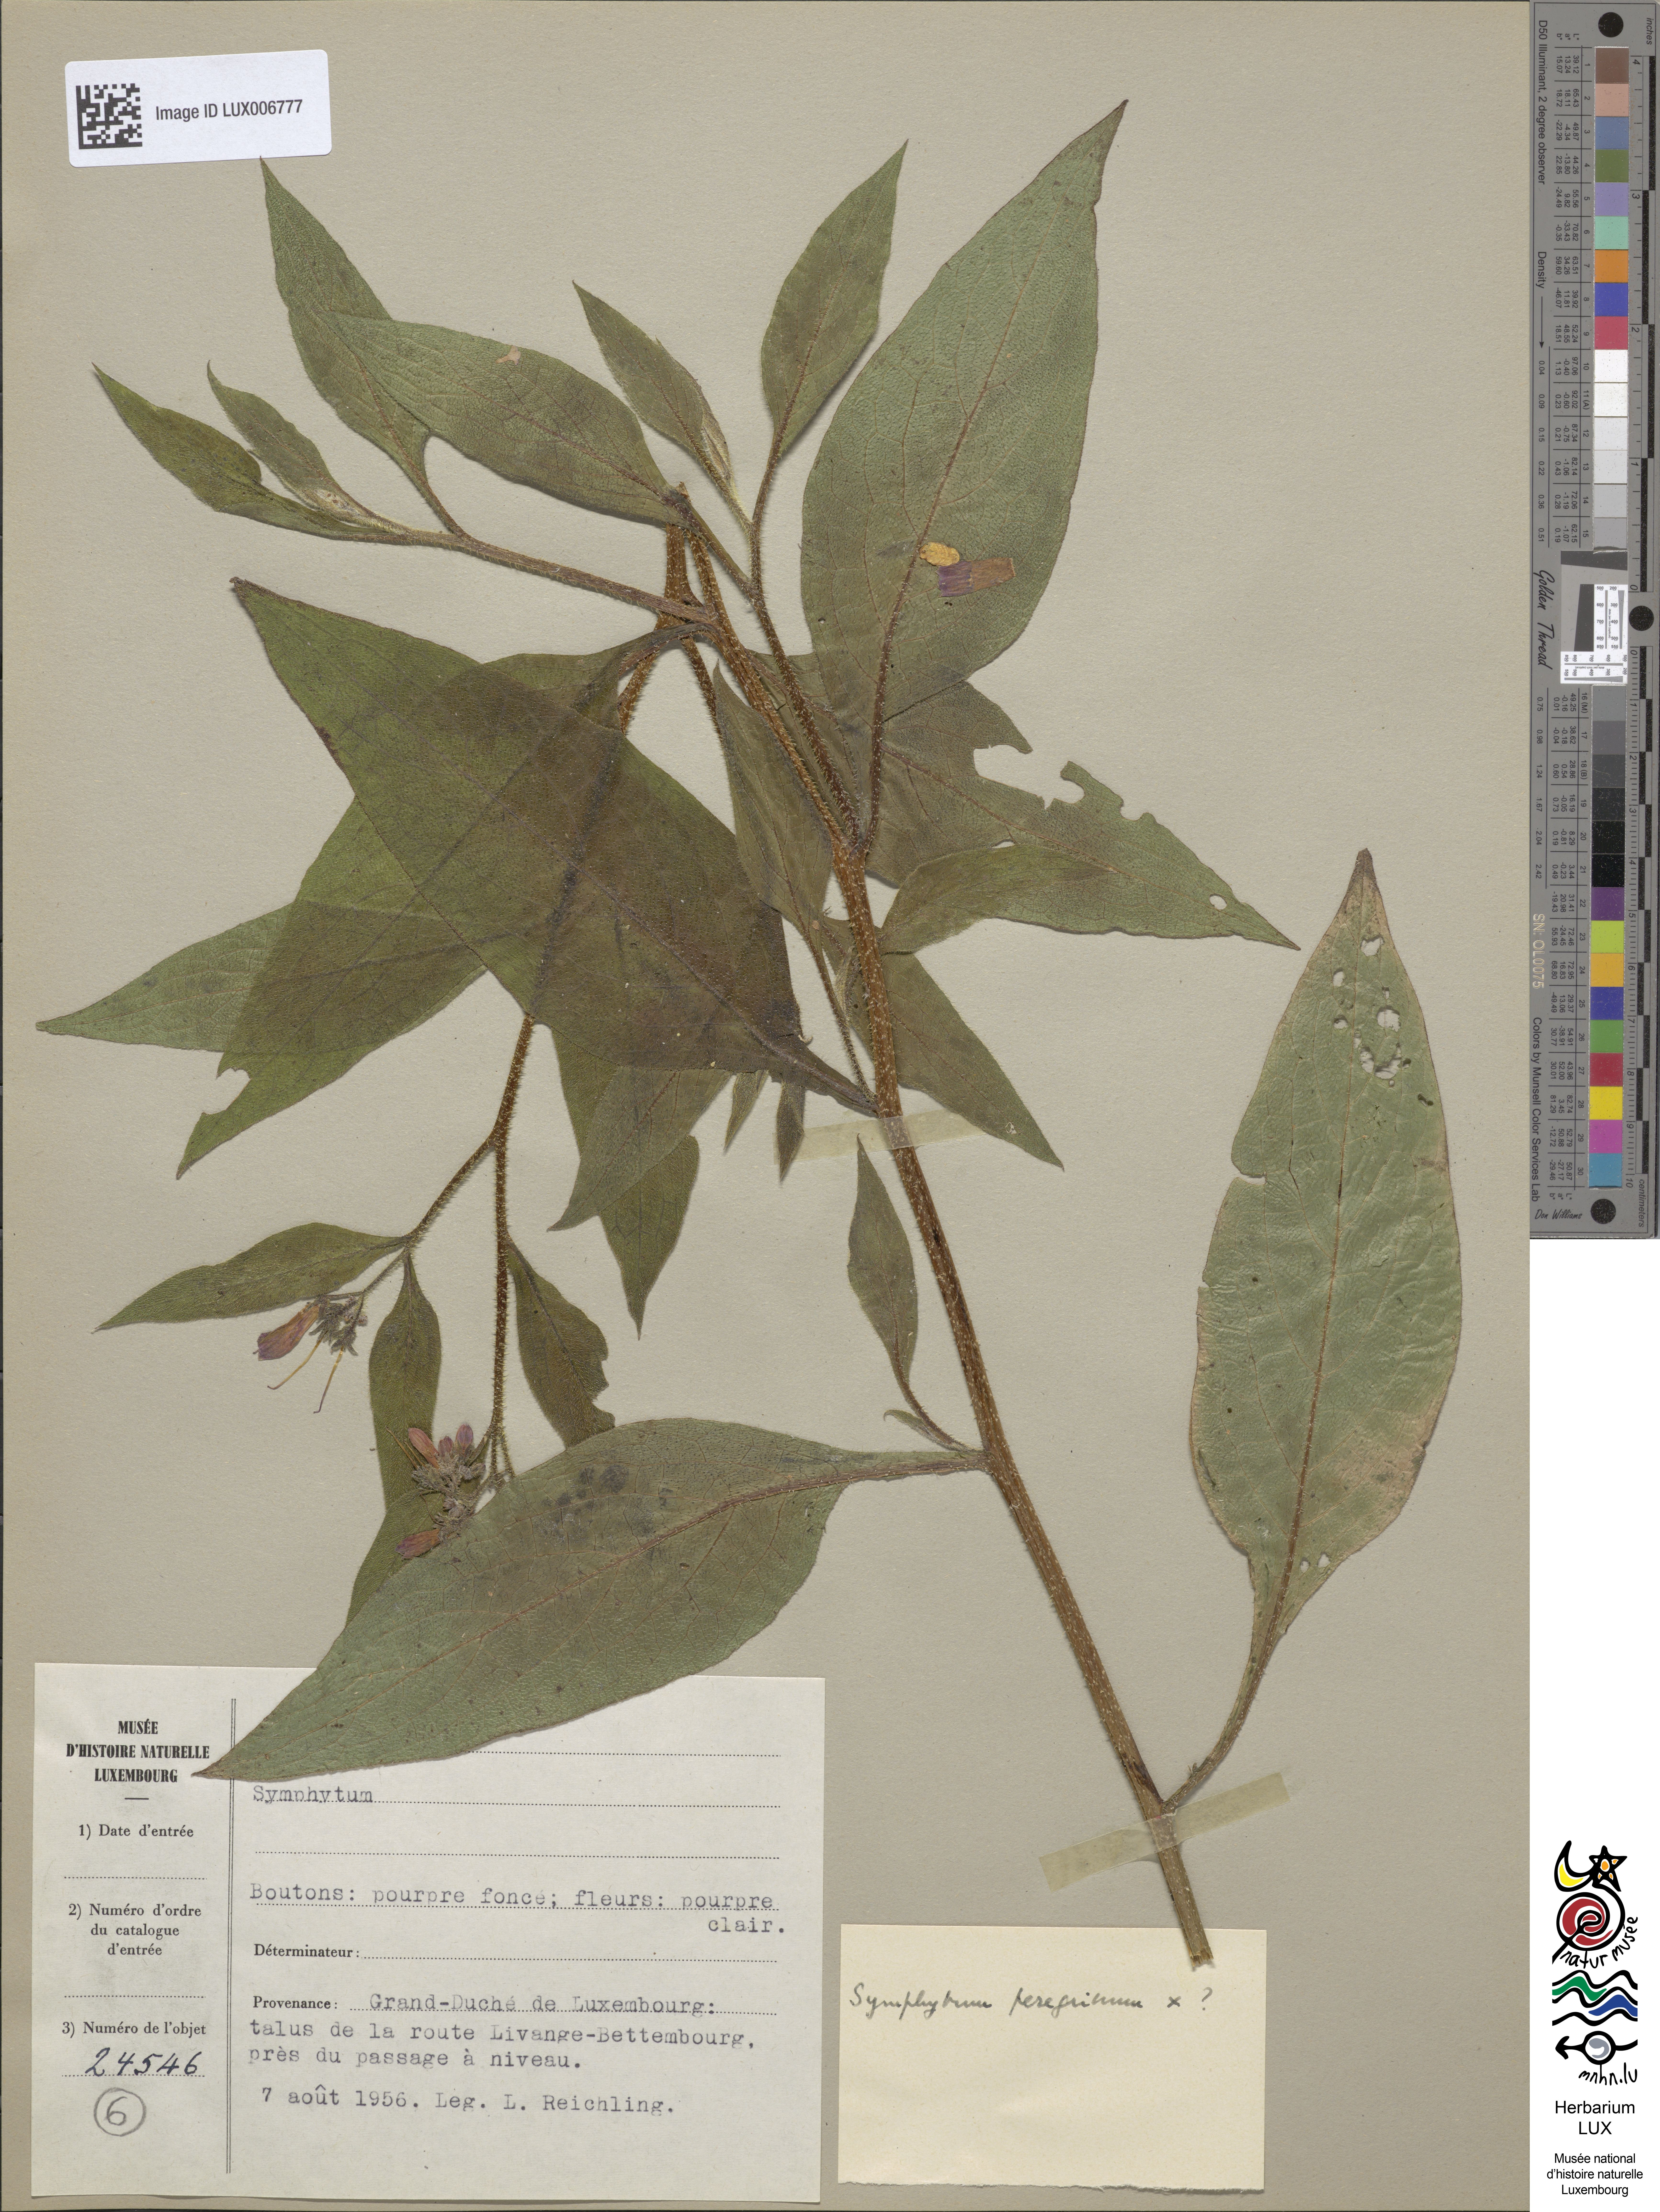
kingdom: Plantae
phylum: Tracheophyta
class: Magnoliopsida
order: Boraginales
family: Boraginaceae
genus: Symphytum
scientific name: Symphytum officinale
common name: Common comfrey
